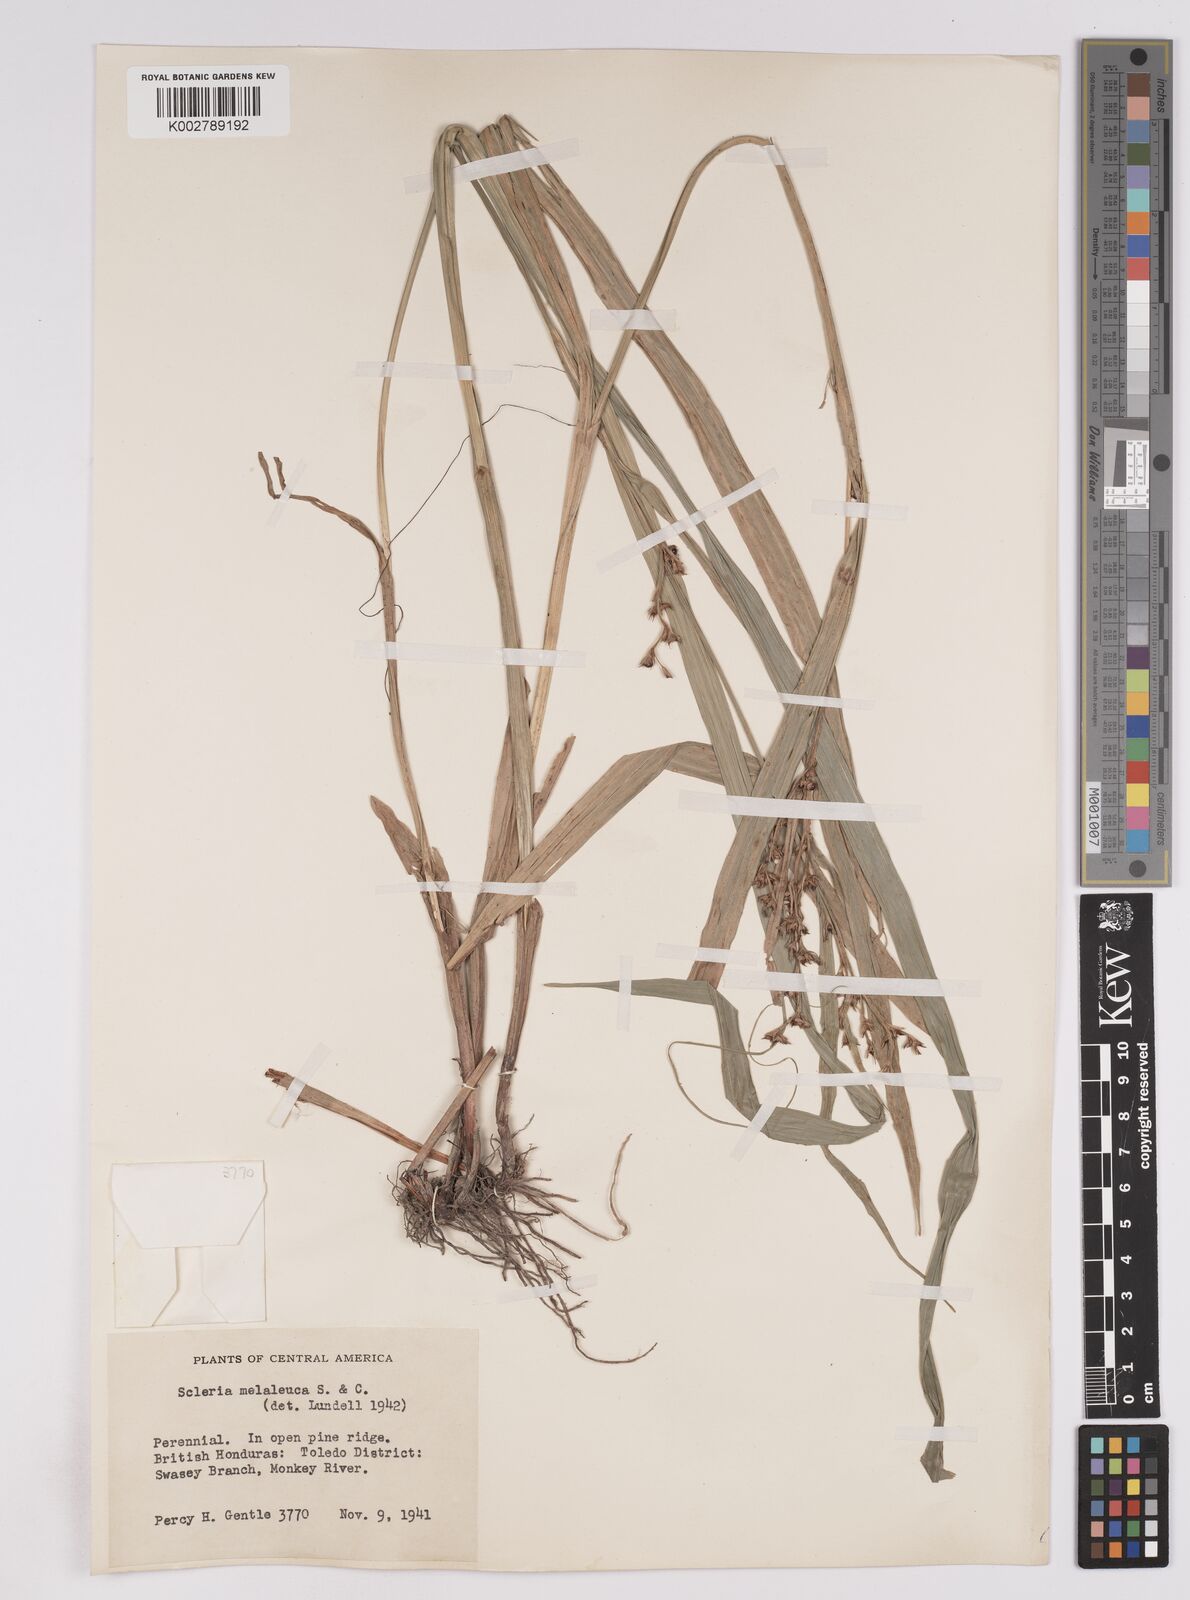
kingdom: Plantae
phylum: Tracheophyta
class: Liliopsida
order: Poales
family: Cyperaceae
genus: Scleria
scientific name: Scleria gaertneri
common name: Cortadera blanca
